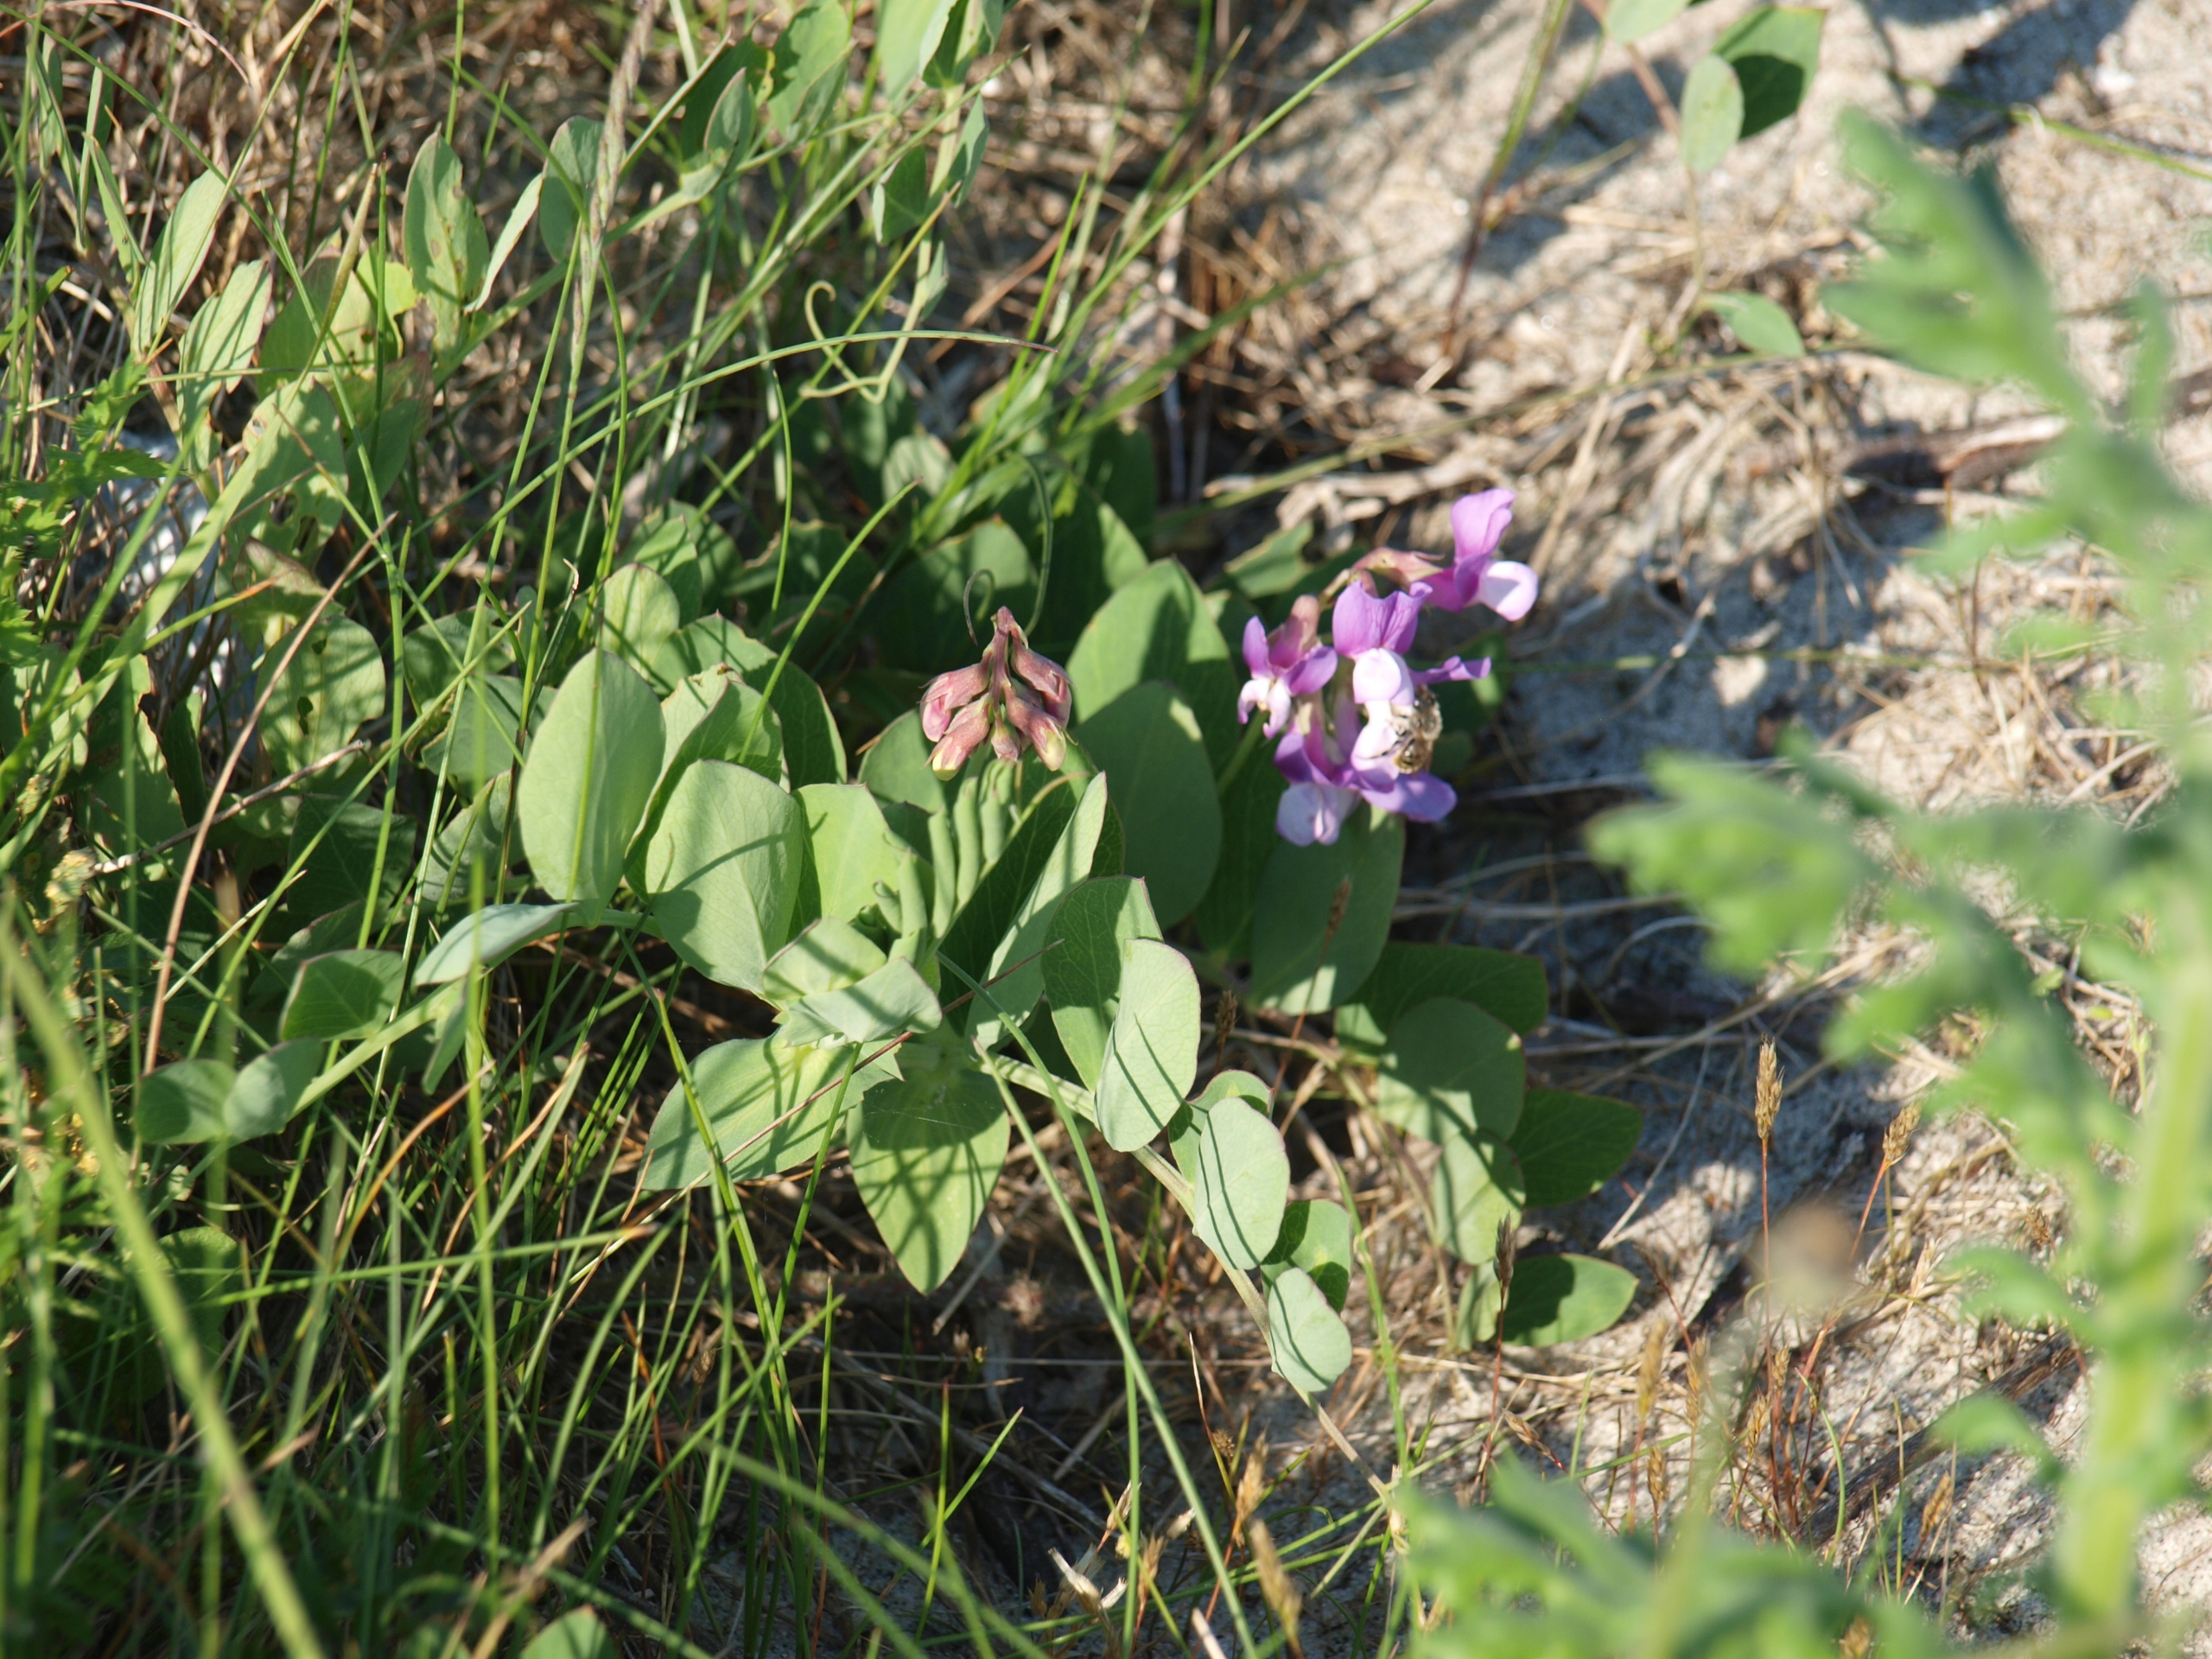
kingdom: Plantae
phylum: Tracheophyta
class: Magnoliopsida
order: Fabales
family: Fabaceae
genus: Lathyrus
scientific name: Lathyrus japonicus
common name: Klit-fladbælg
